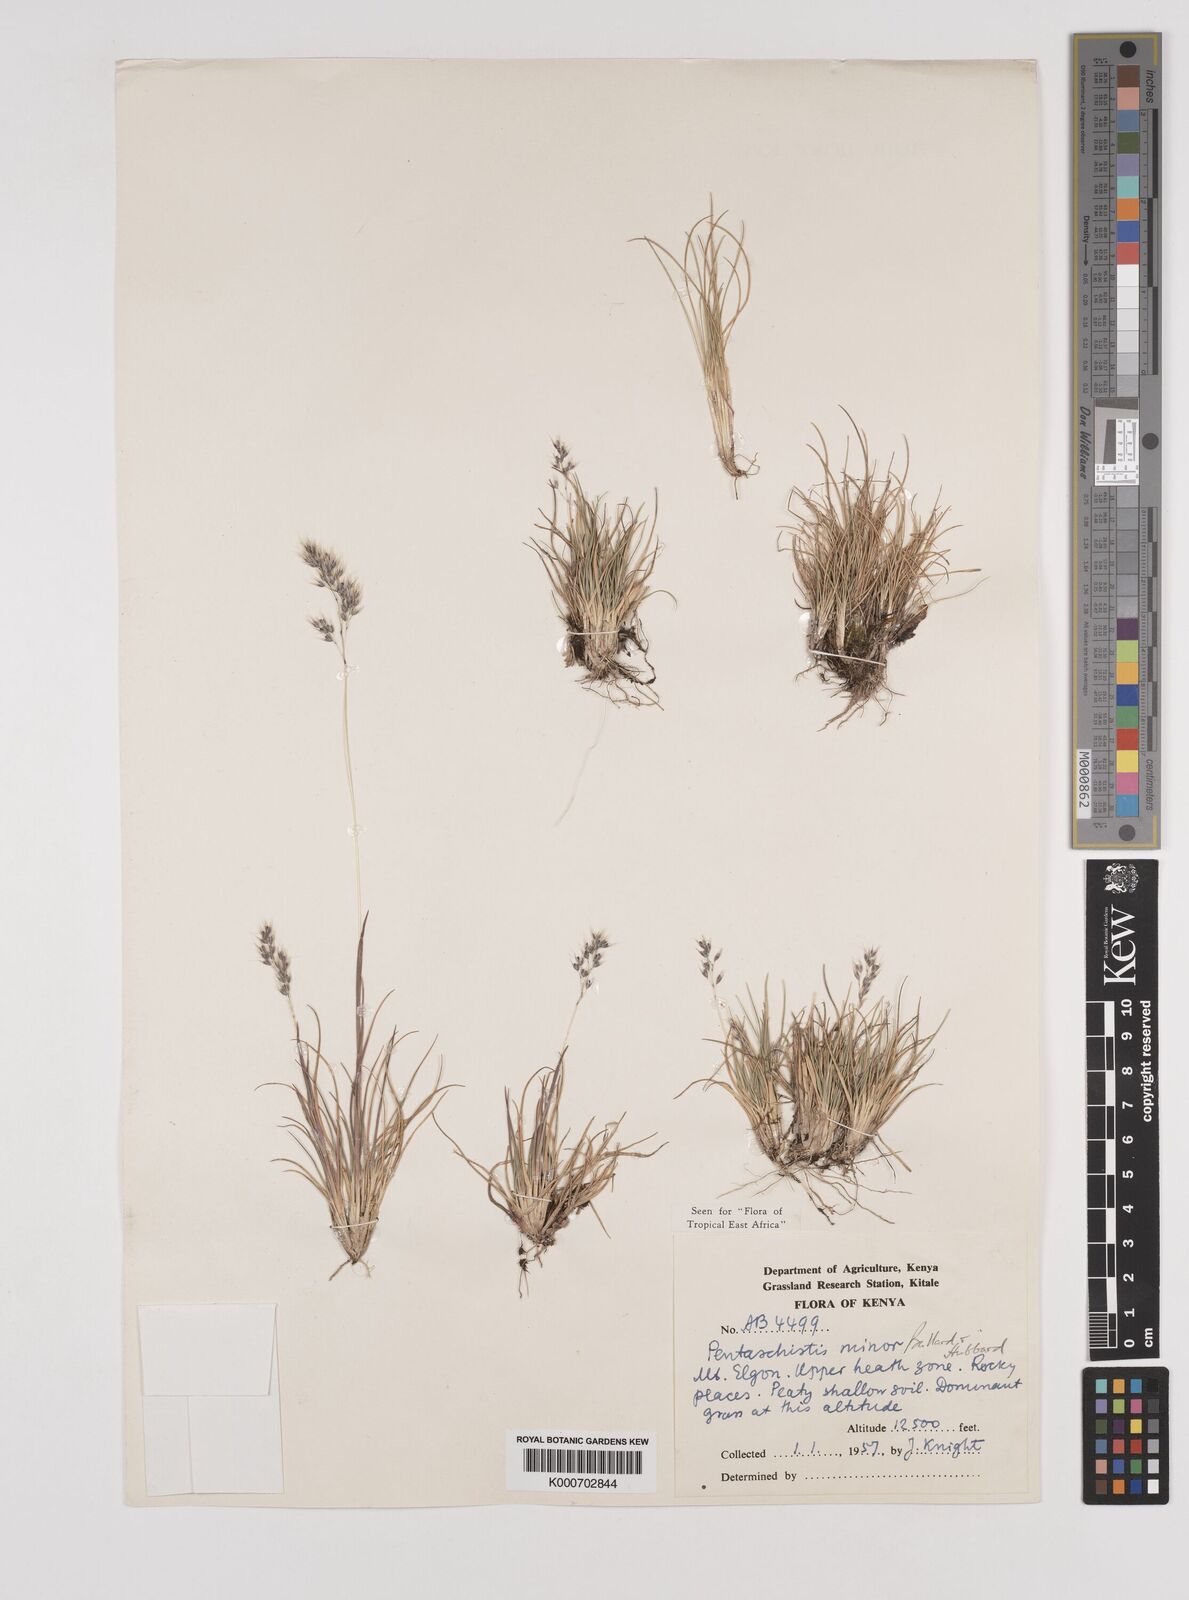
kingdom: Plantae
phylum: Tracheophyta
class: Liliopsida
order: Poales
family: Poaceae
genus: Pentameris
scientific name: Pentameris minor
